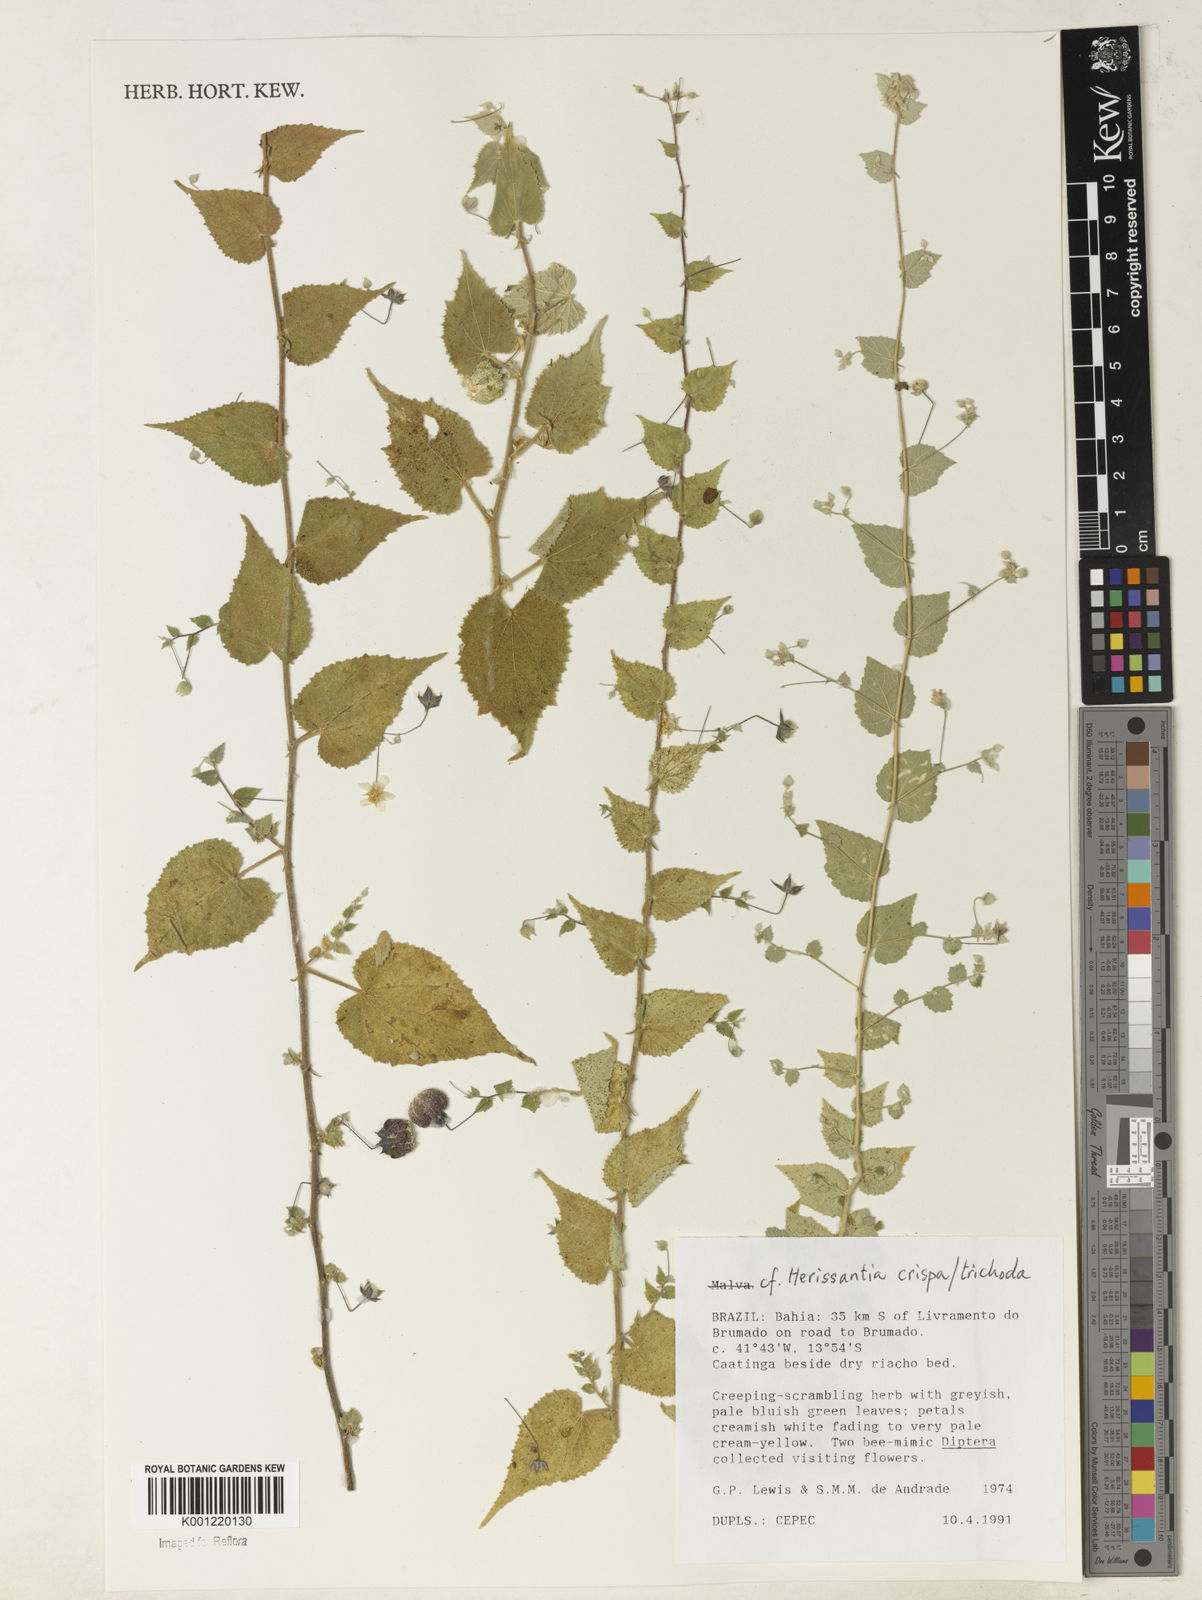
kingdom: Plantae
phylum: Tracheophyta
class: Magnoliopsida
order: Malvales
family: Malvaceae
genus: Herissantia
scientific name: Herissantia crispa
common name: Bladdermallow
